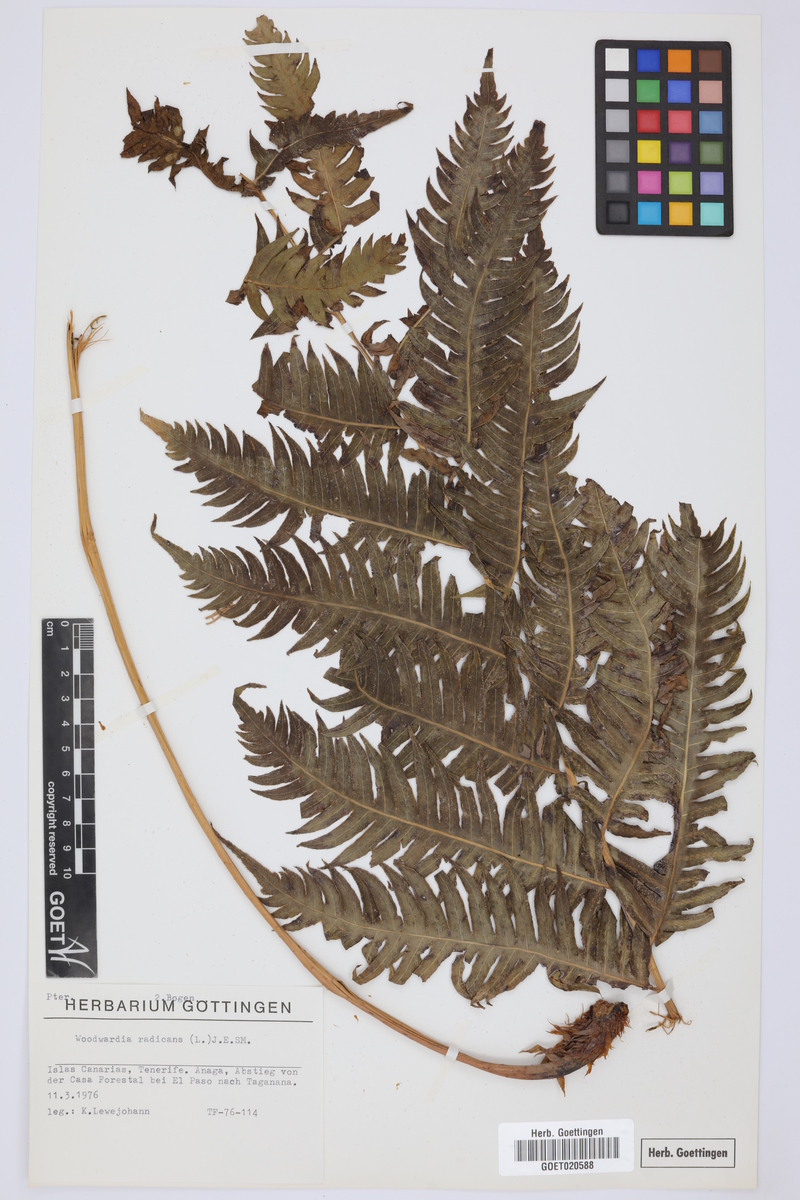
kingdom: Plantae
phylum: Tracheophyta
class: Polypodiopsida
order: Polypodiales
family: Blechnaceae
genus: Woodwardia
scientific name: Woodwardia radicans
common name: Rooting chainfern
